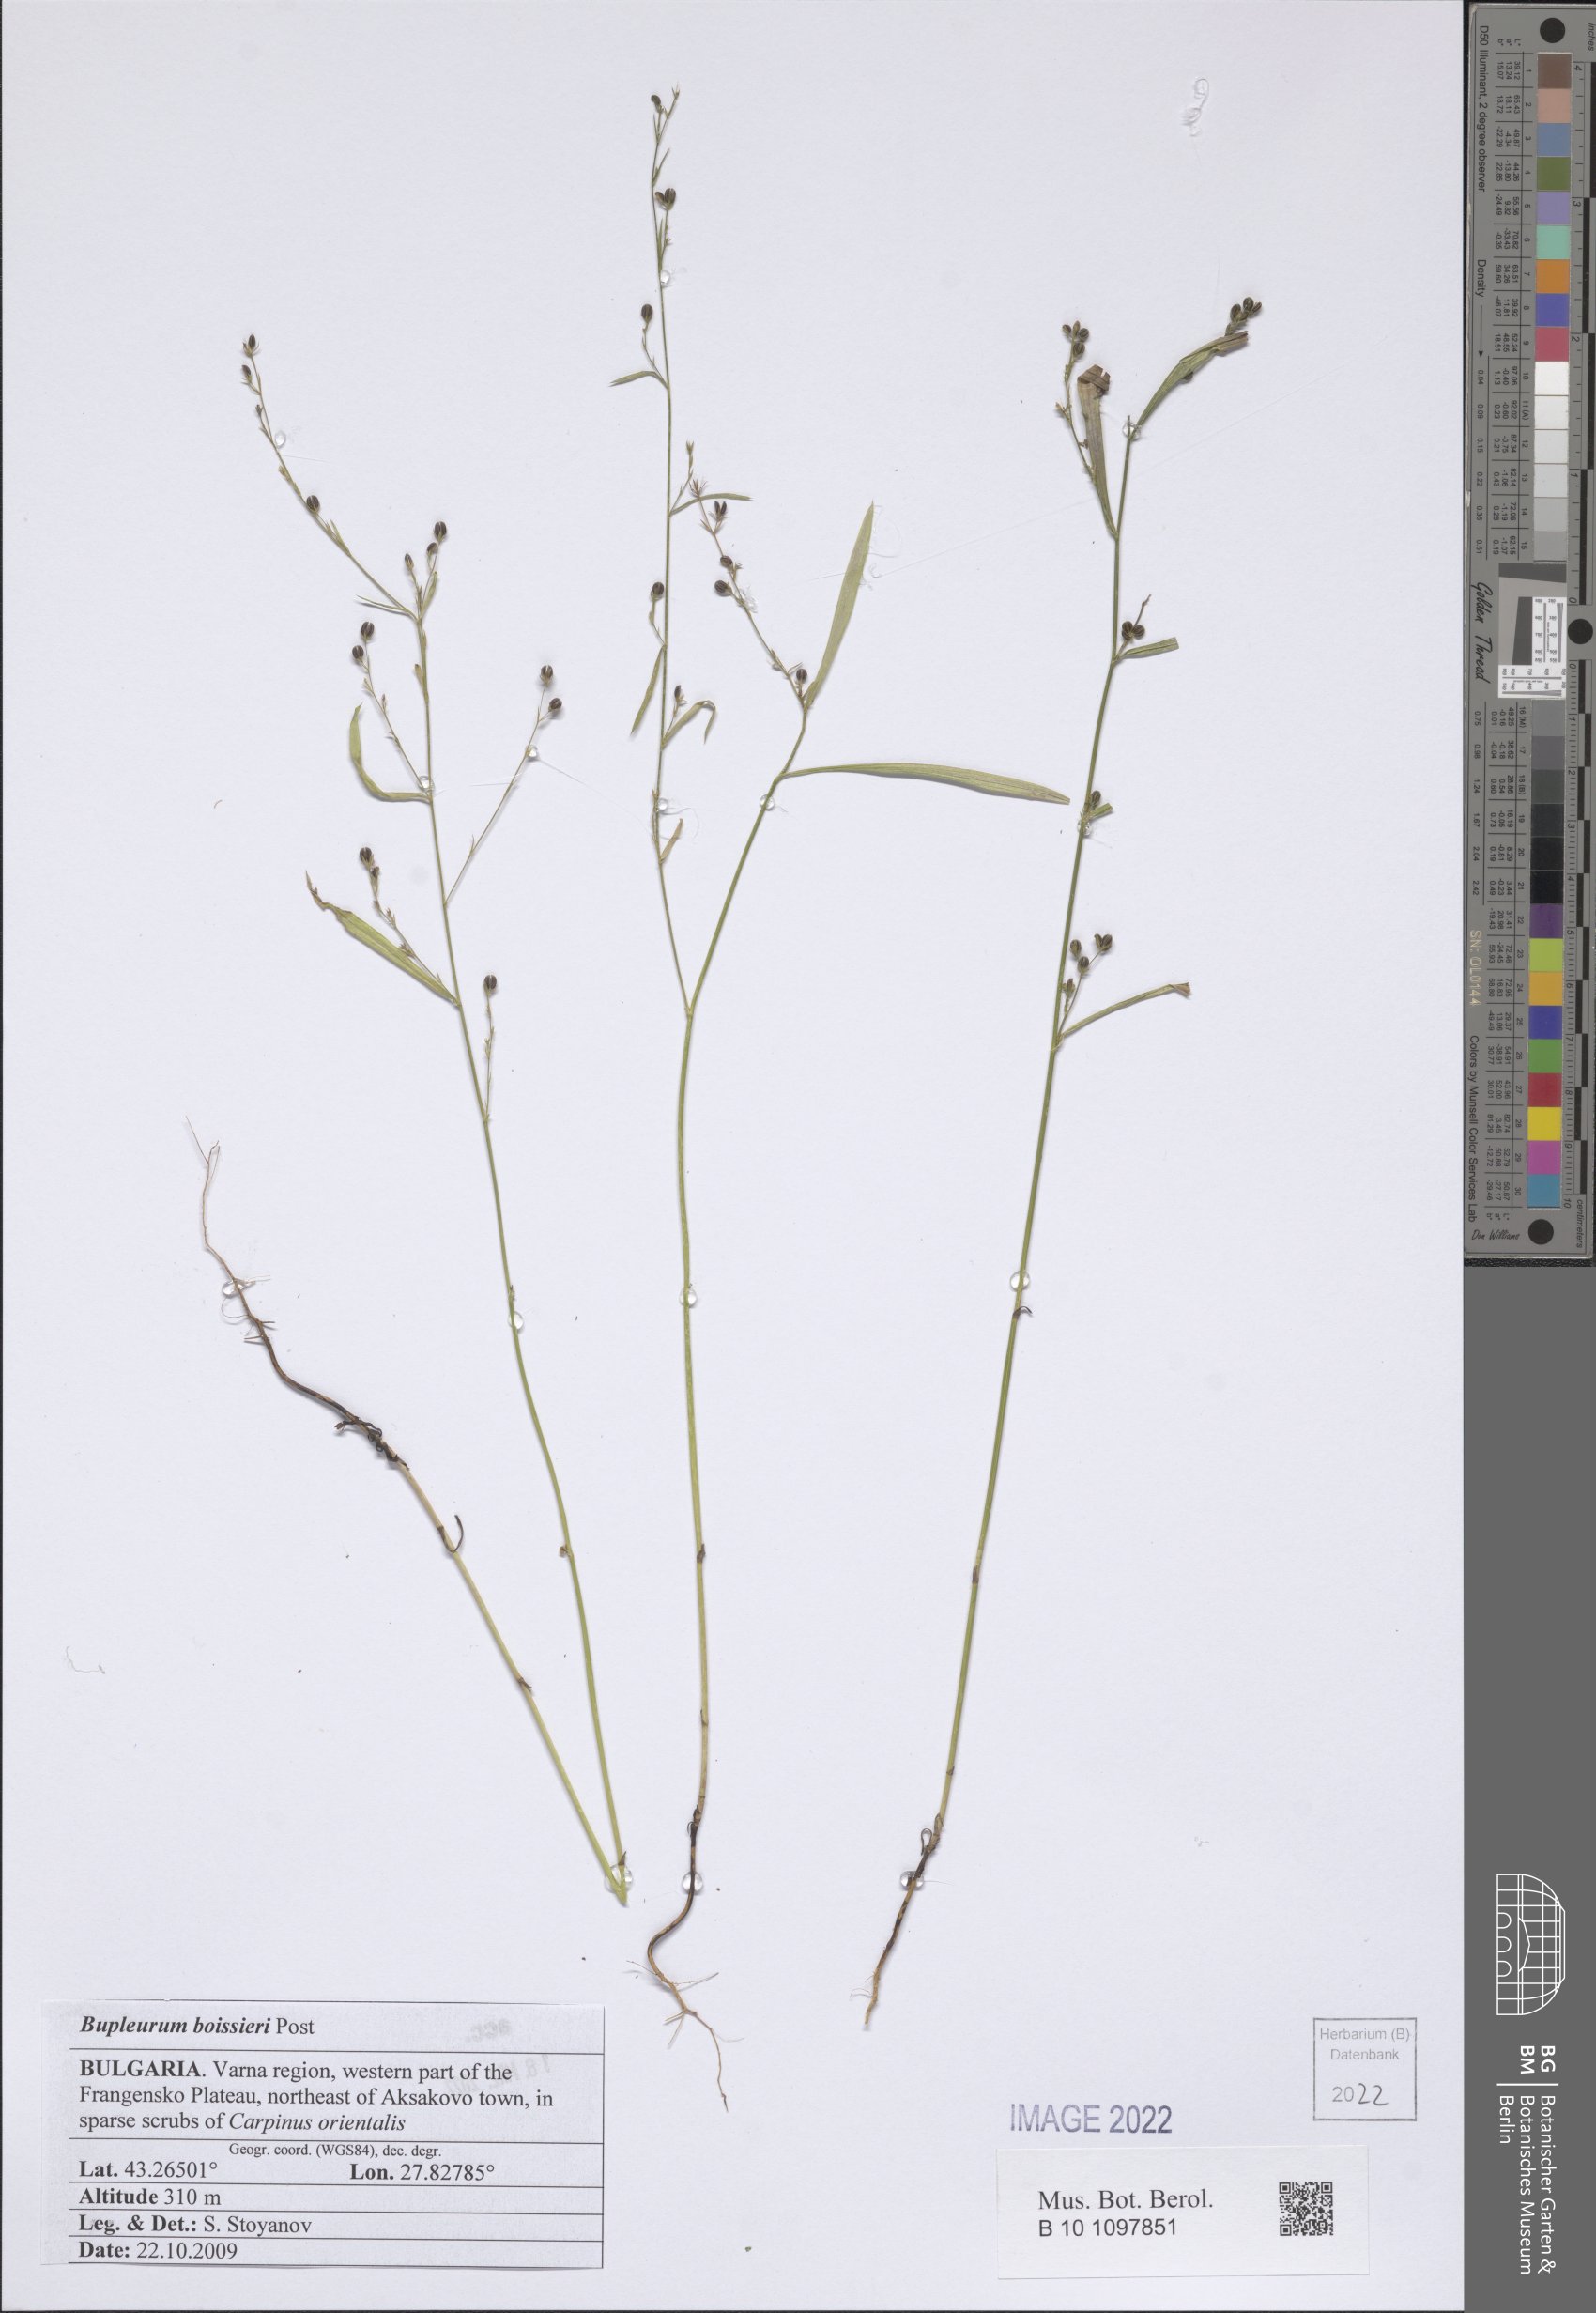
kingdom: Plantae
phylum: Tracheophyta
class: Magnoliopsida
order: Apiales
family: Apiaceae
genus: Bupleurum
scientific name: Bupleurum boissieri
